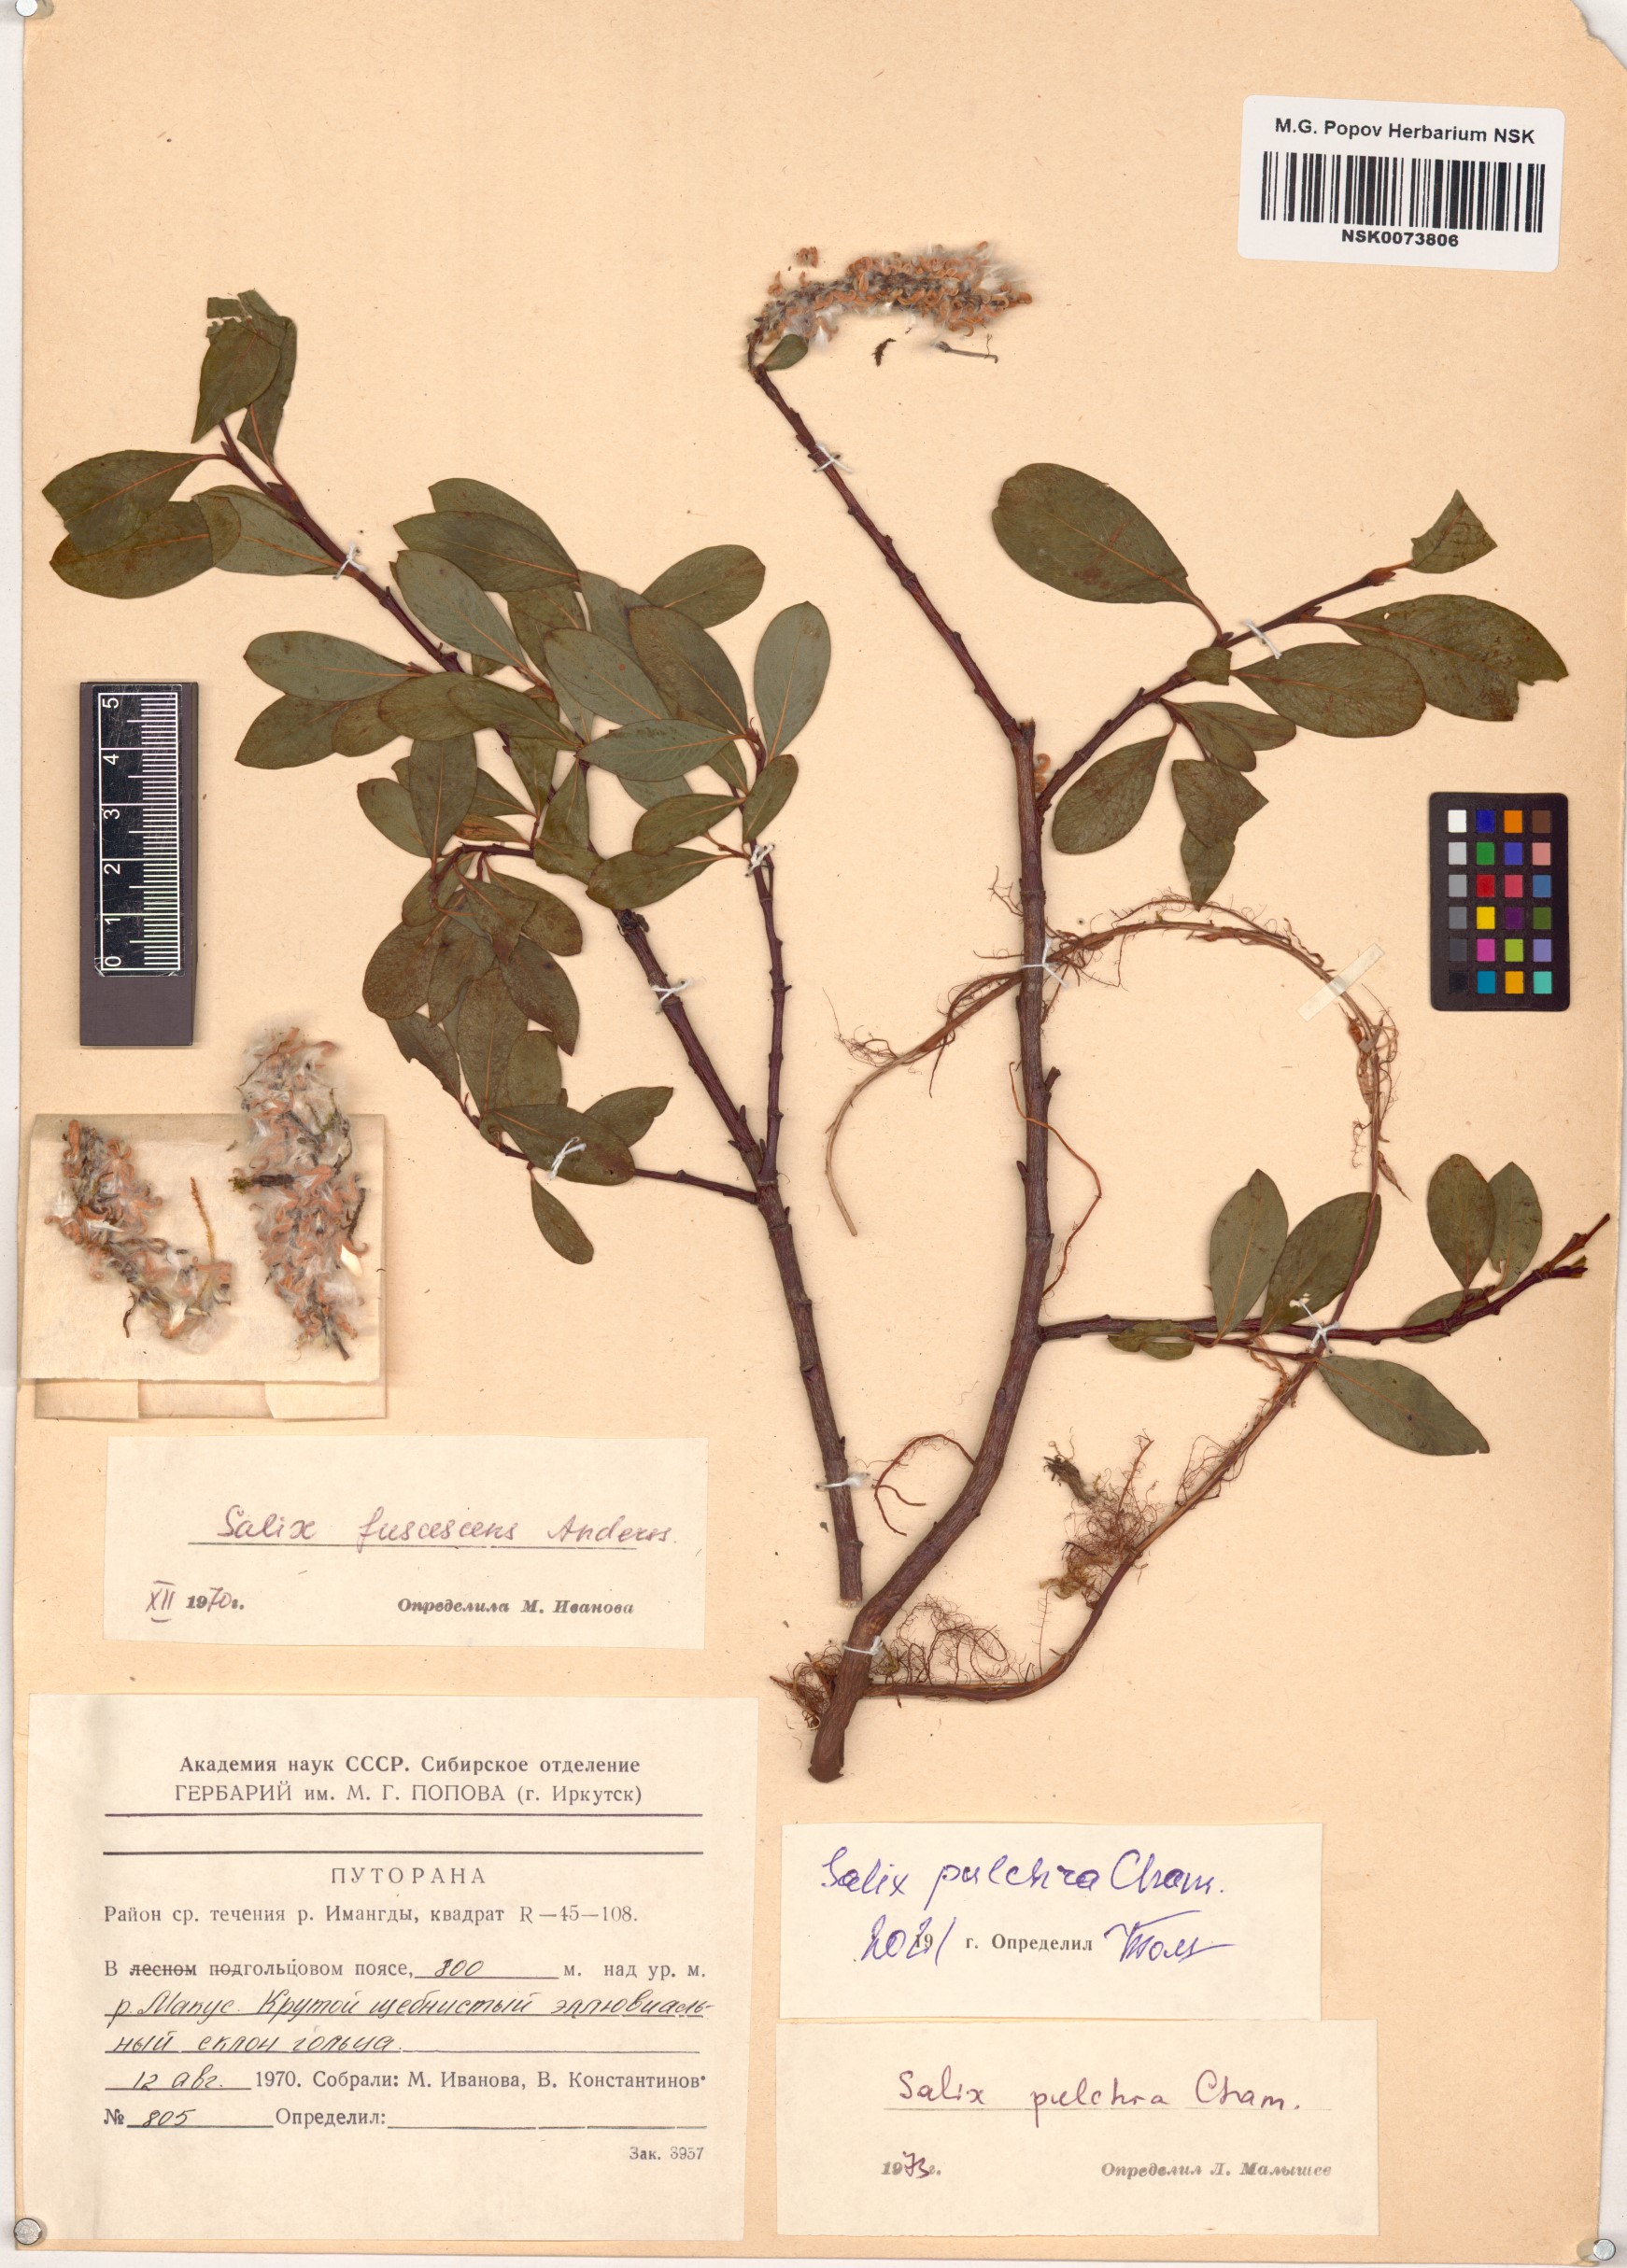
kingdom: Plantae
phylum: Tracheophyta
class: Magnoliopsida
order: Malpighiales
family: Salicaceae
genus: Salix
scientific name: Salix pulchra
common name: Diamond-leaved willow
